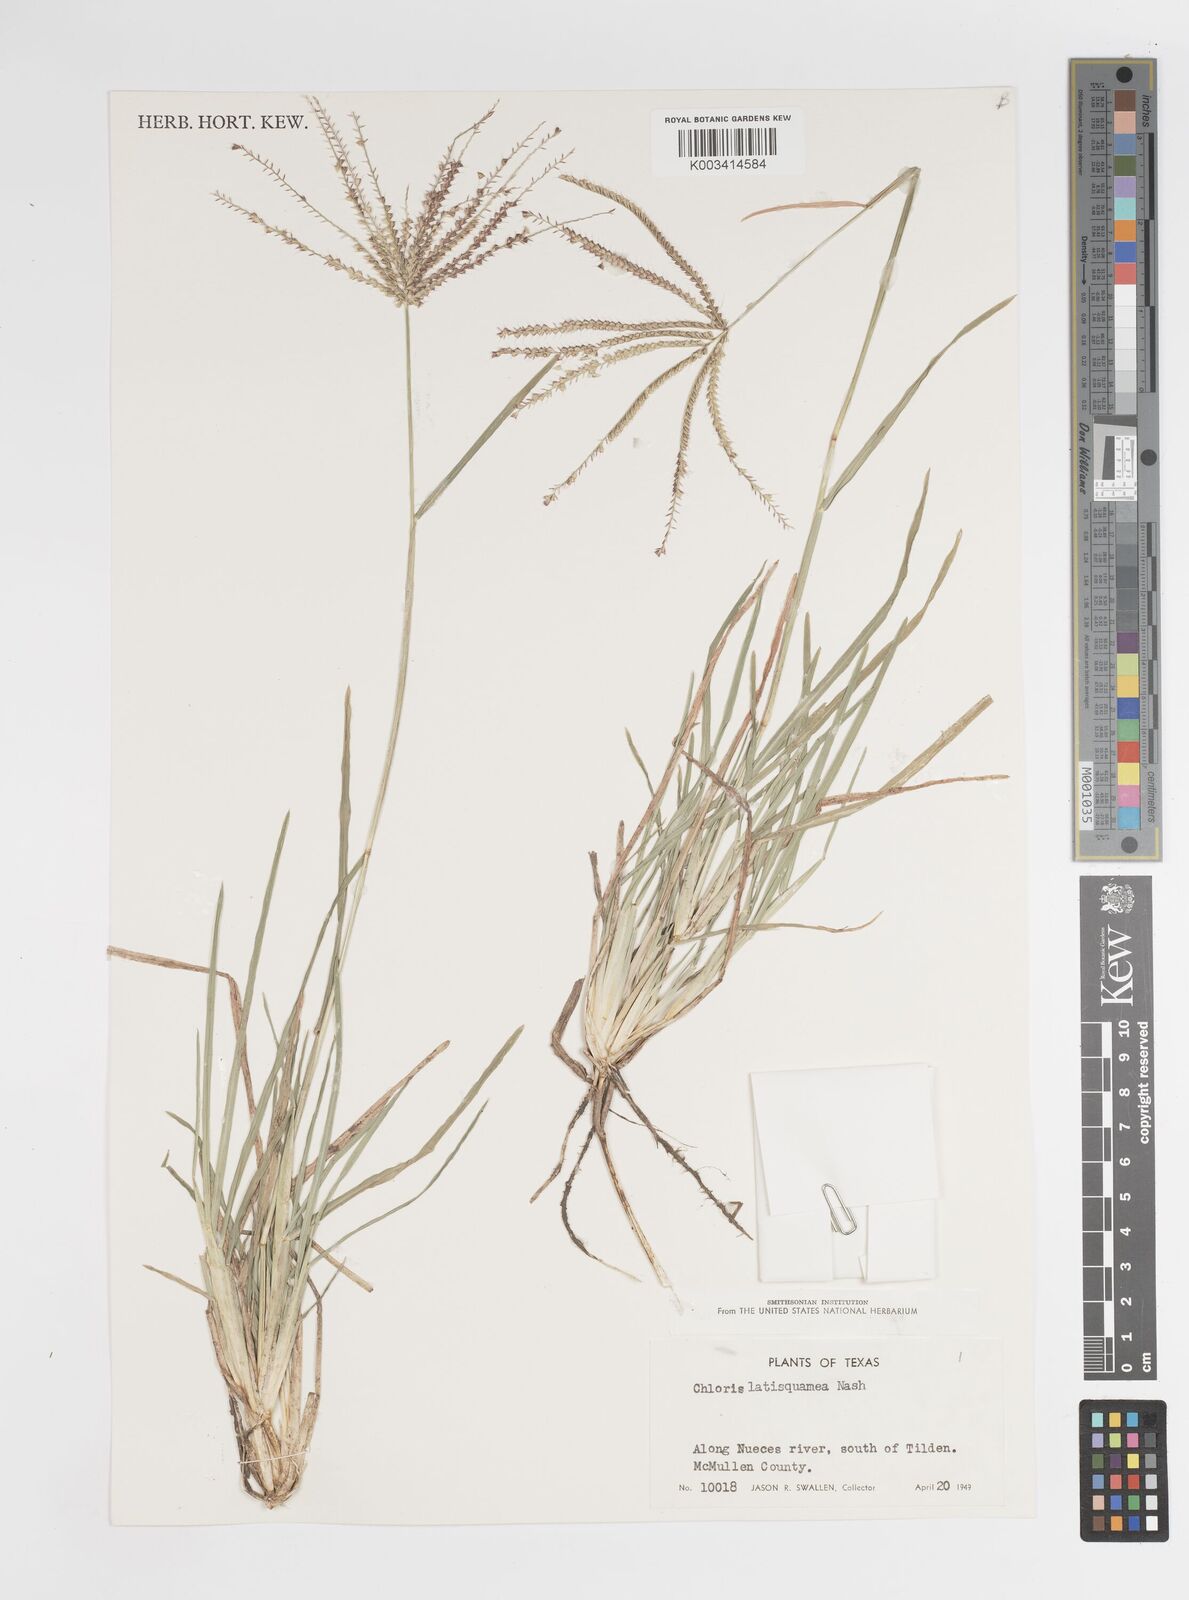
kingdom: Plantae
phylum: Tracheophyta
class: Liliopsida
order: Poales
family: Poaceae
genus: Chloris
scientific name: Chloris subdolichostachya
